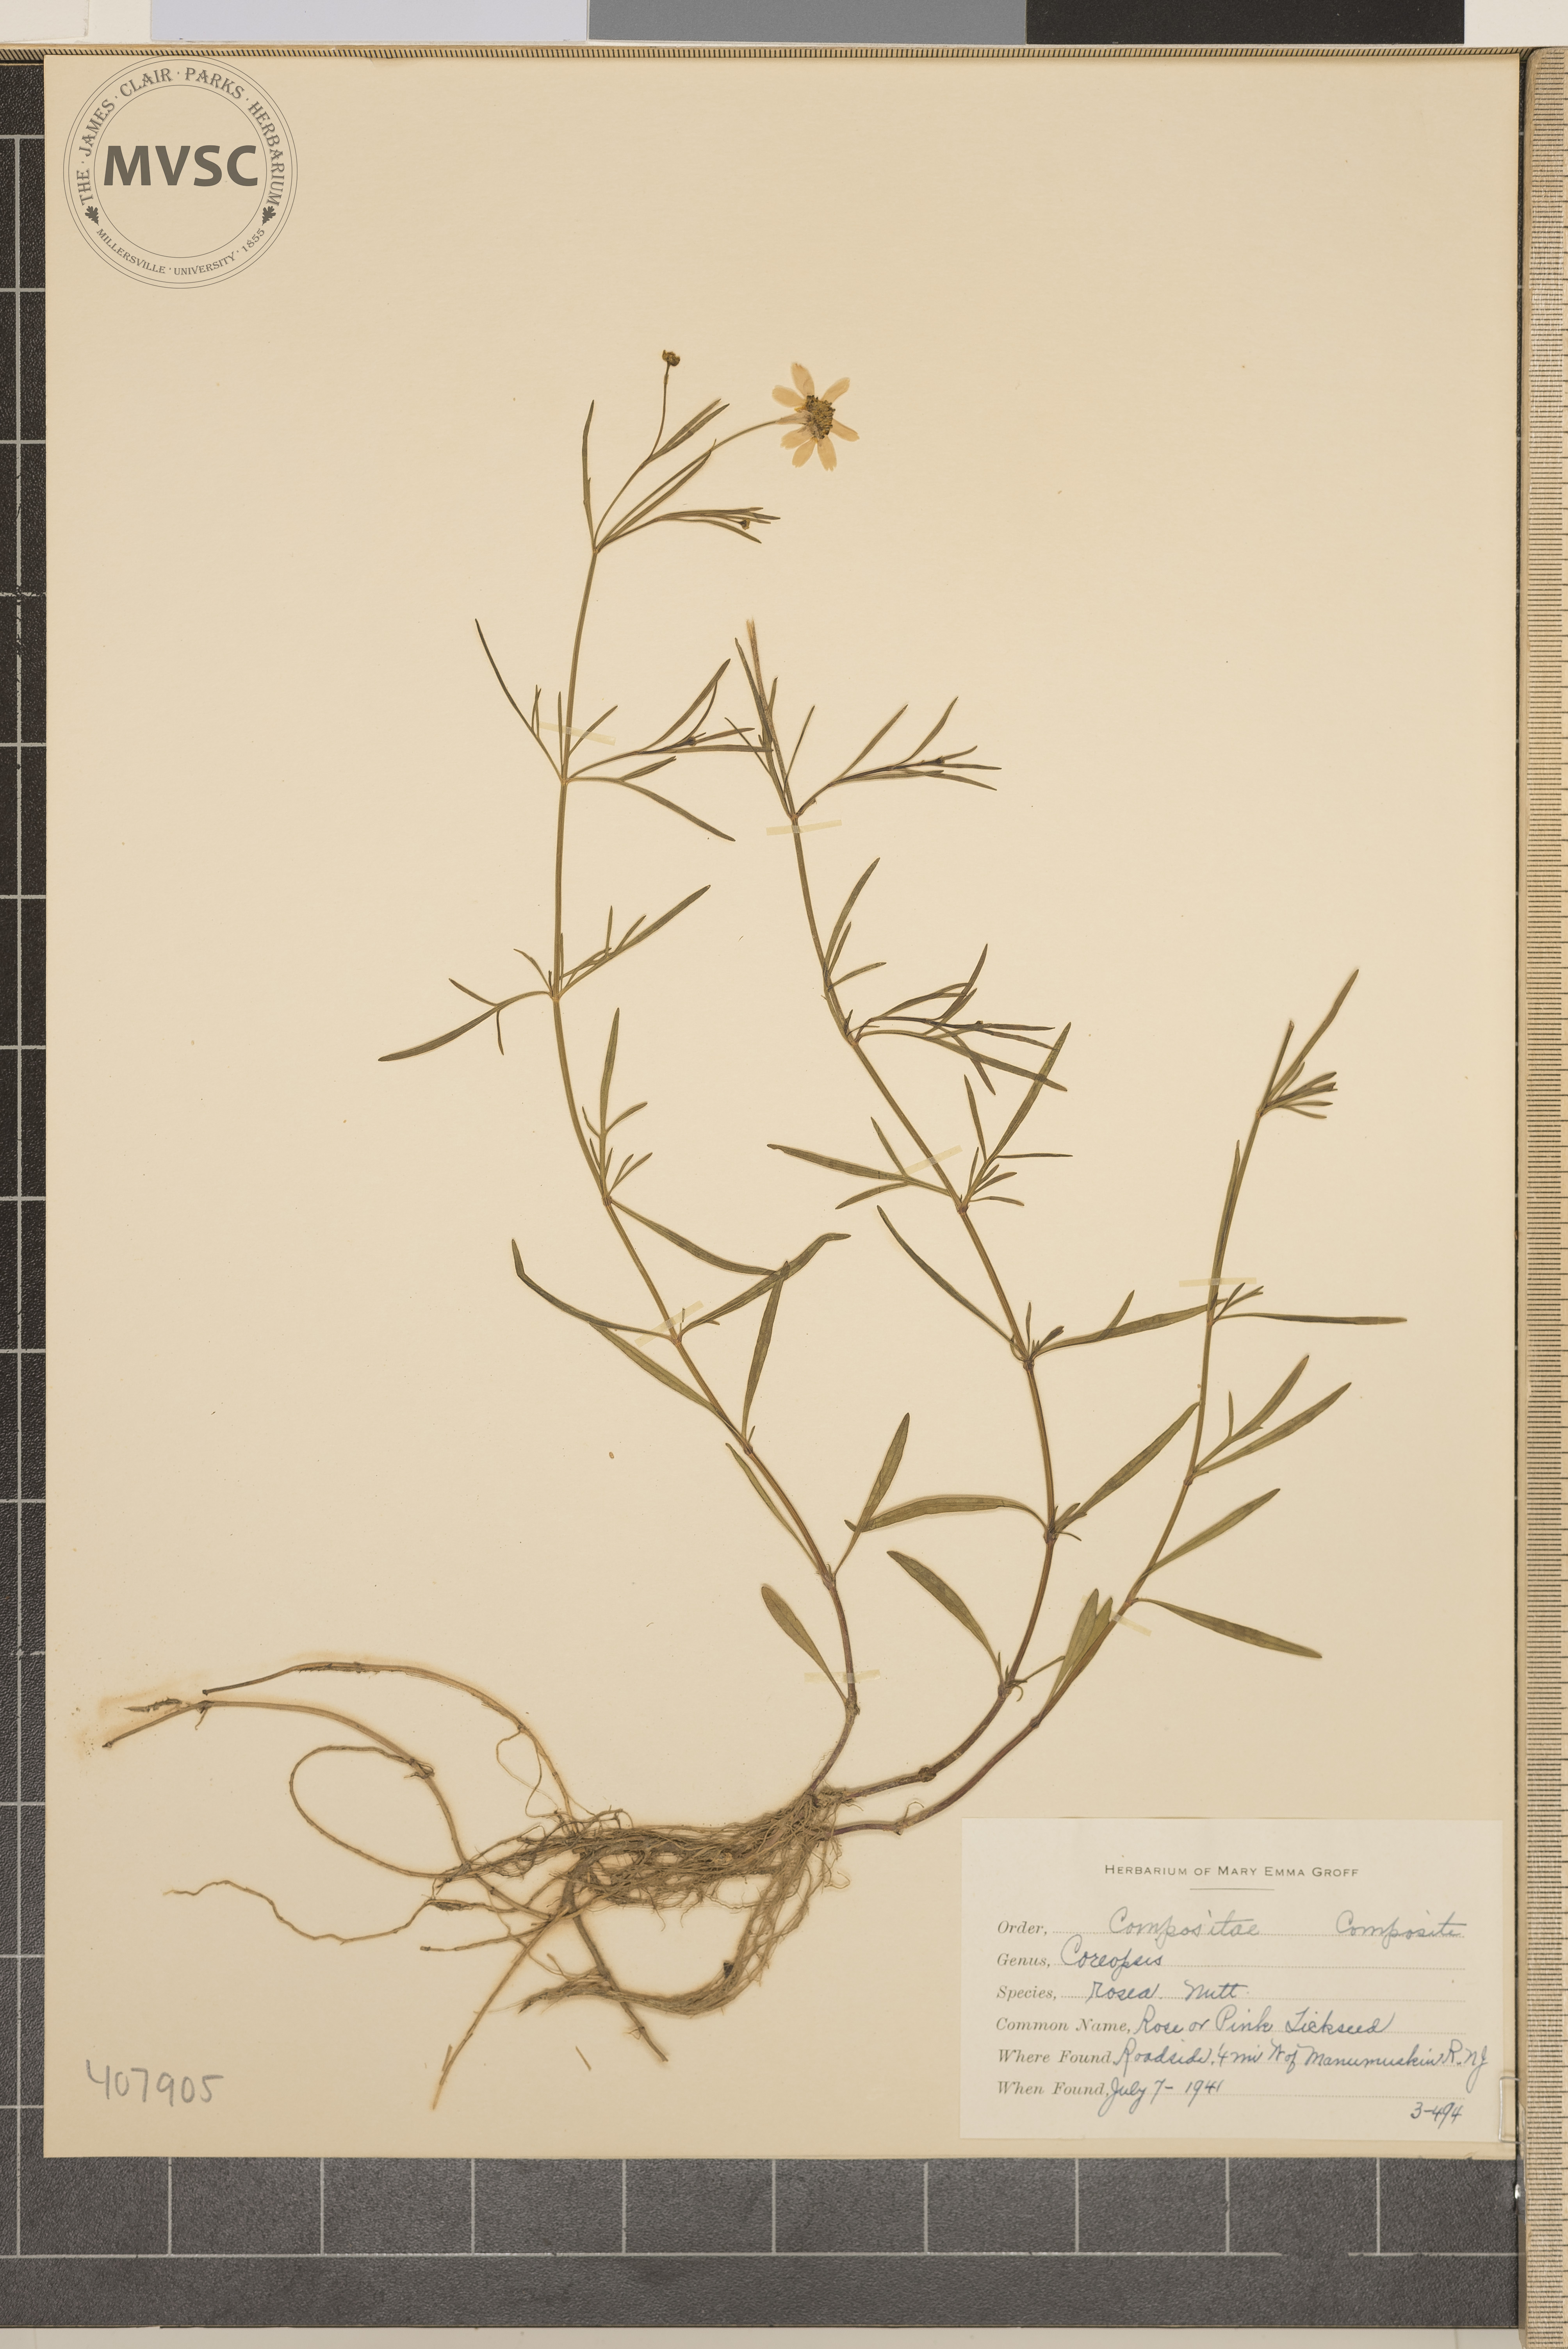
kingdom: Plantae
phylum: Tracheophyta
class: Magnoliopsida
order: Asterales
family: Asteraceae
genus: Coreopsis
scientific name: Coreopsis rosea
